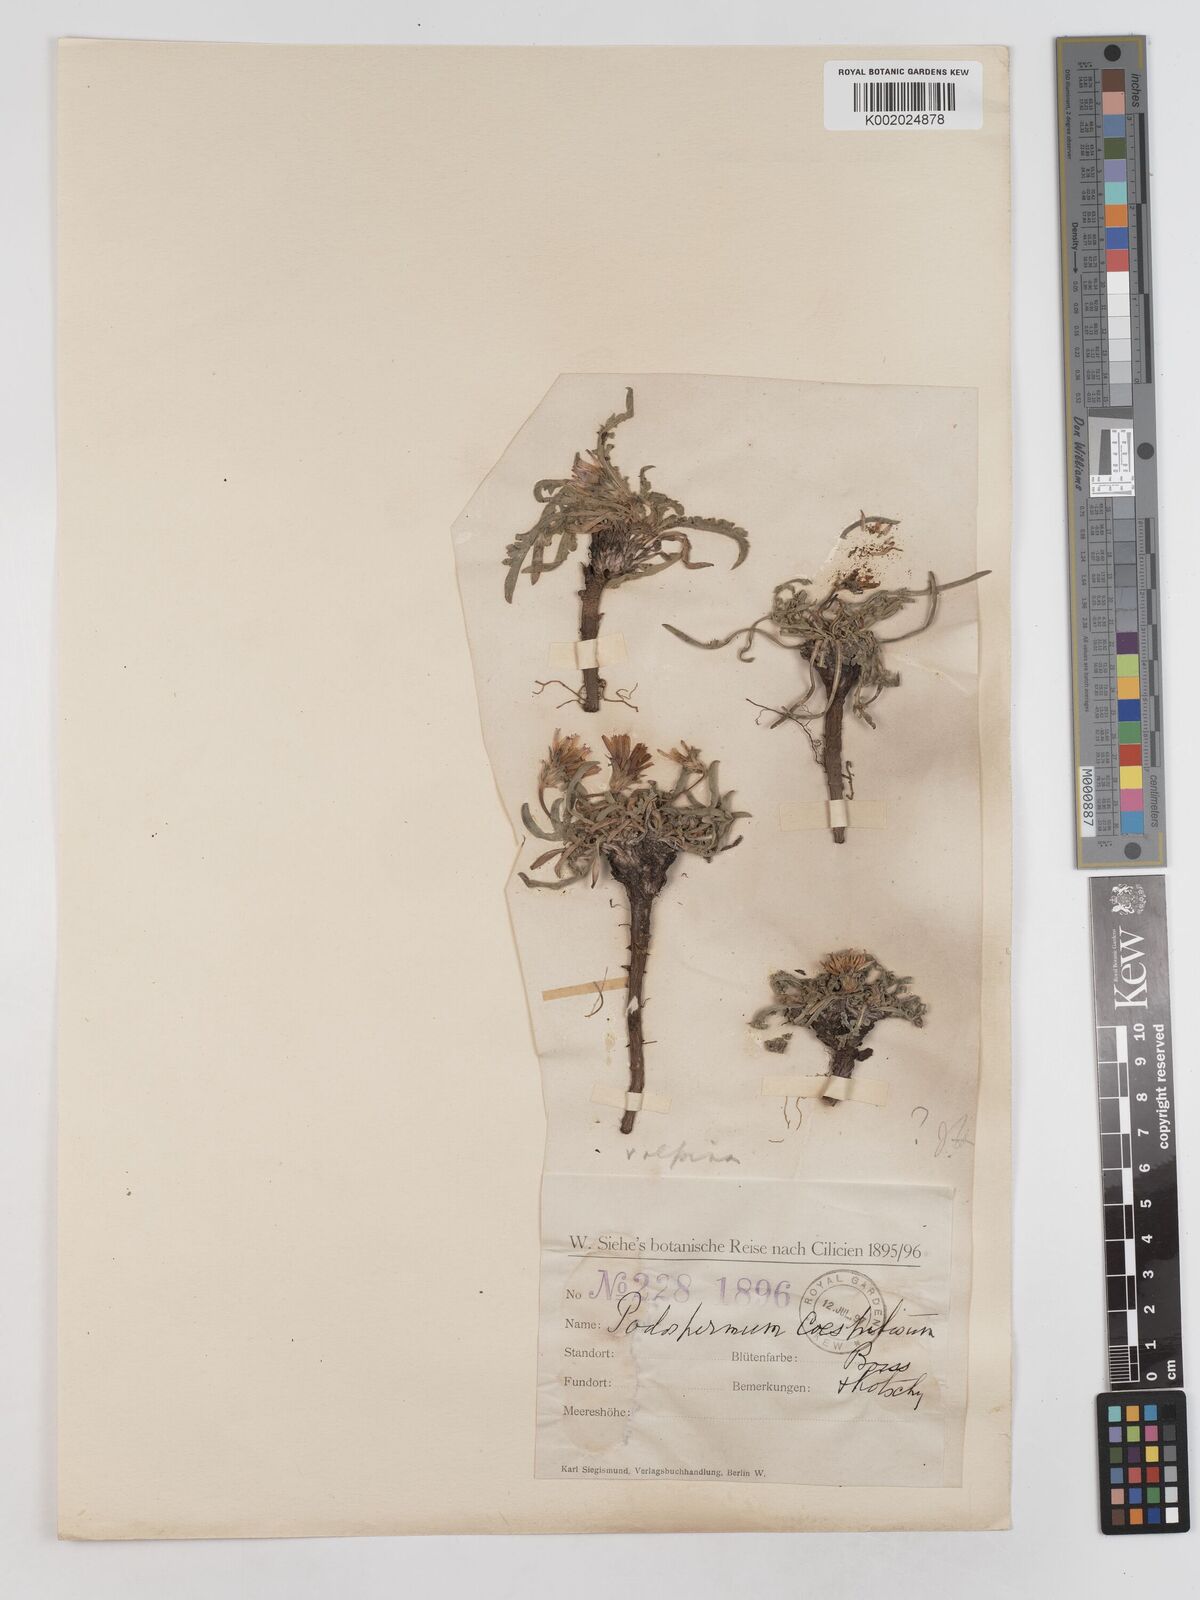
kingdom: Plantae
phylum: Tracheophyta
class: Magnoliopsida
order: Asterales
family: Asteraceae
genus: Scorzonera
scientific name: Scorzonera cana
